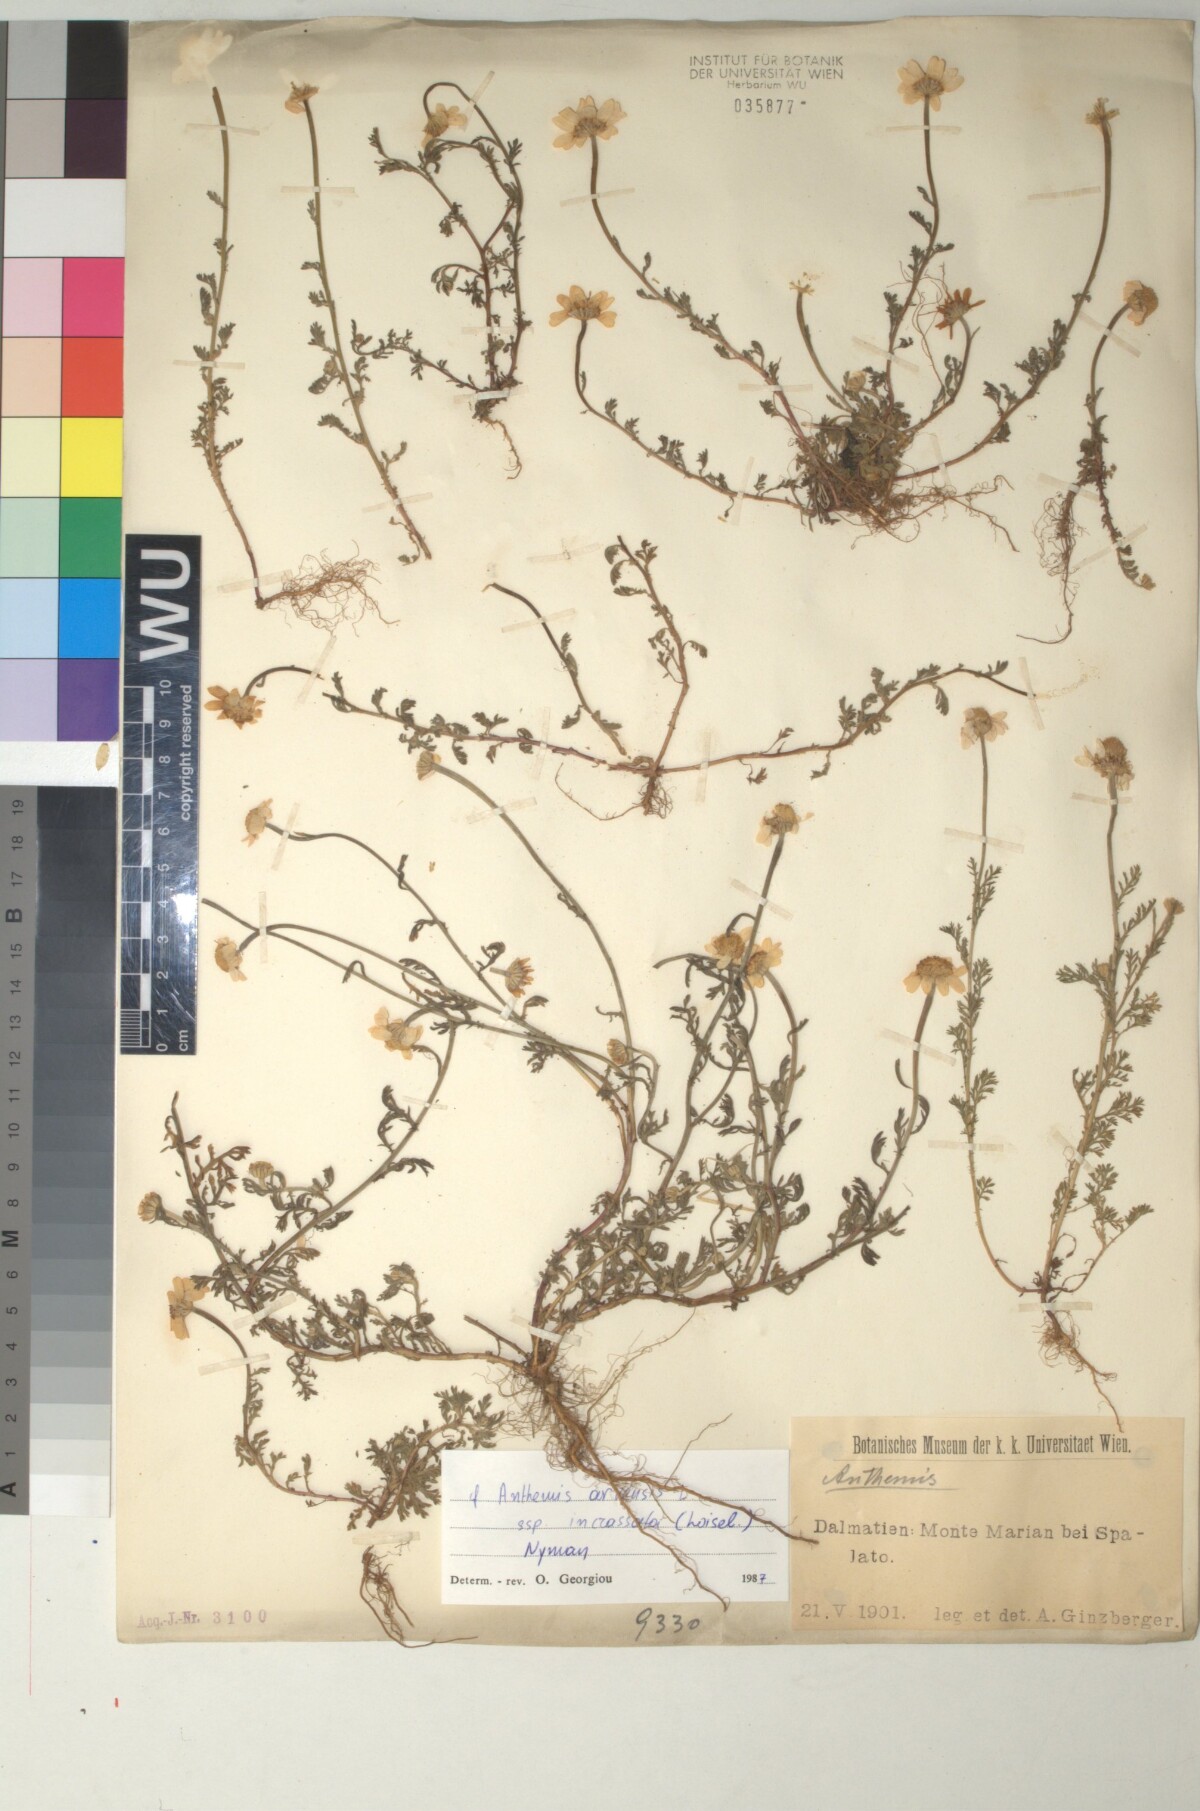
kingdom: Plantae
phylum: Tracheophyta
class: Magnoliopsida
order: Asterales
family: Asteraceae
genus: Anthemis
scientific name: Anthemis arvensis
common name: Corn chamomile
